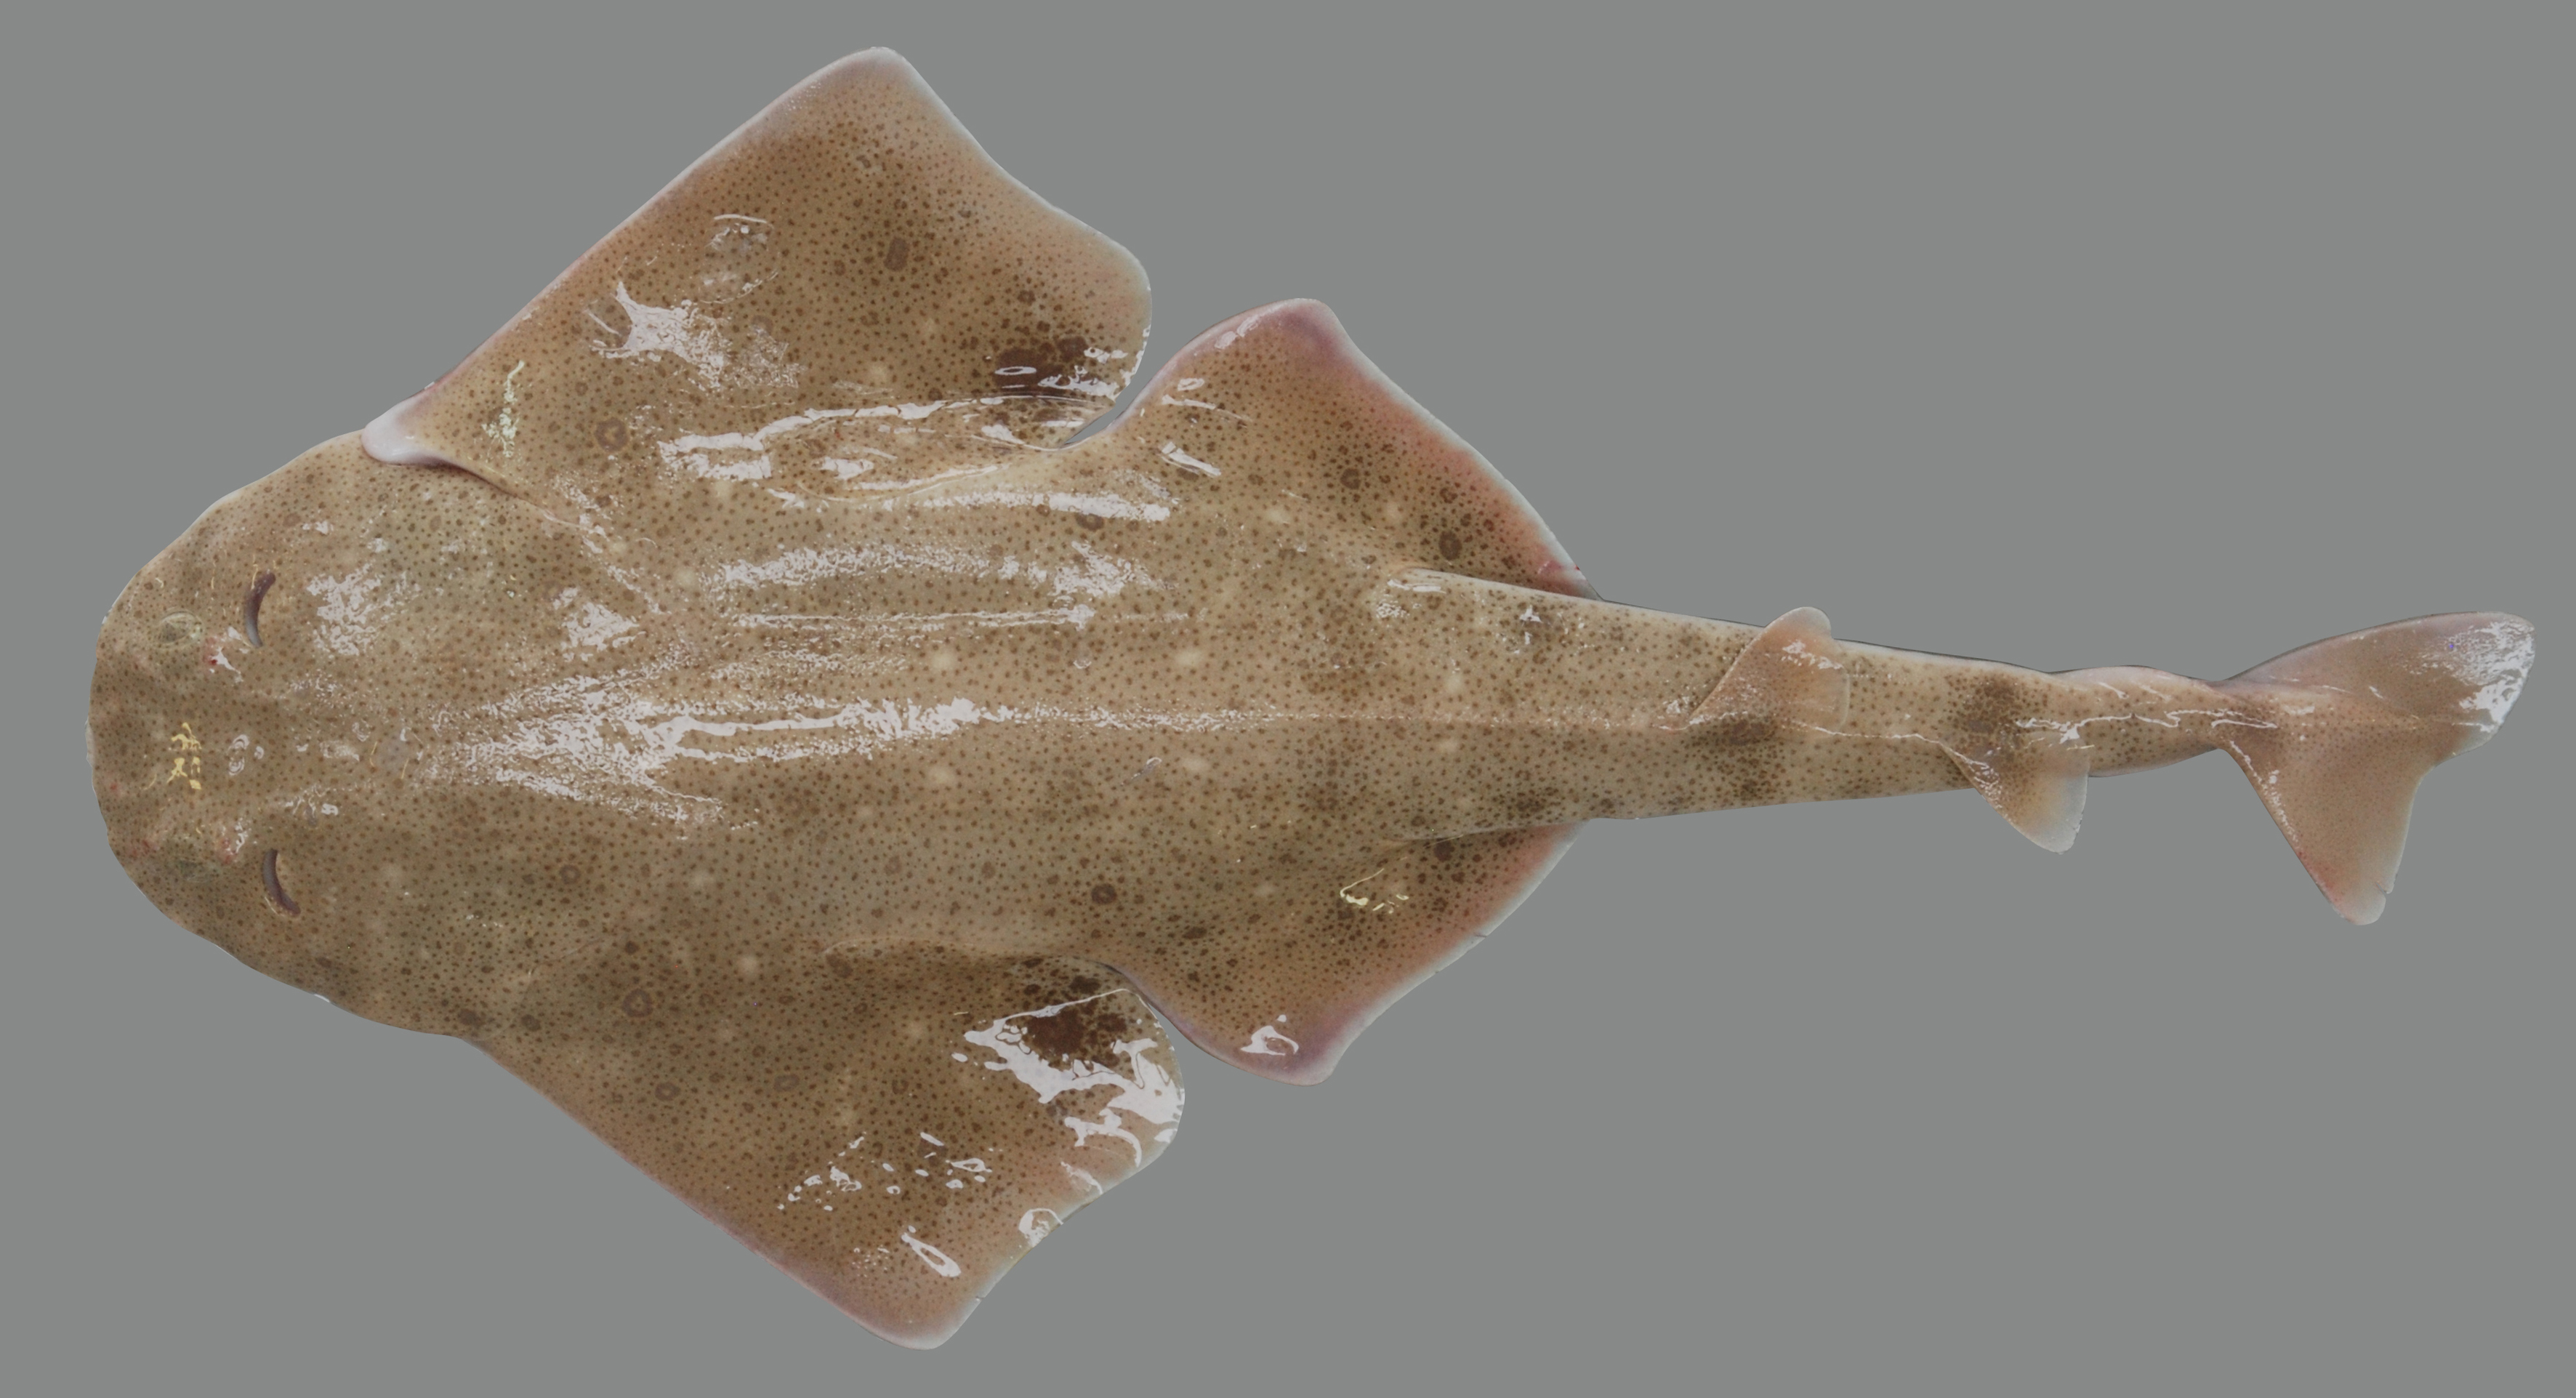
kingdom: Animalia
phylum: Chordata
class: Elasmobranchii
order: Squatiniformes
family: Squatinidae
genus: Squatina
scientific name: Squatina africana
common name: African angelshark
